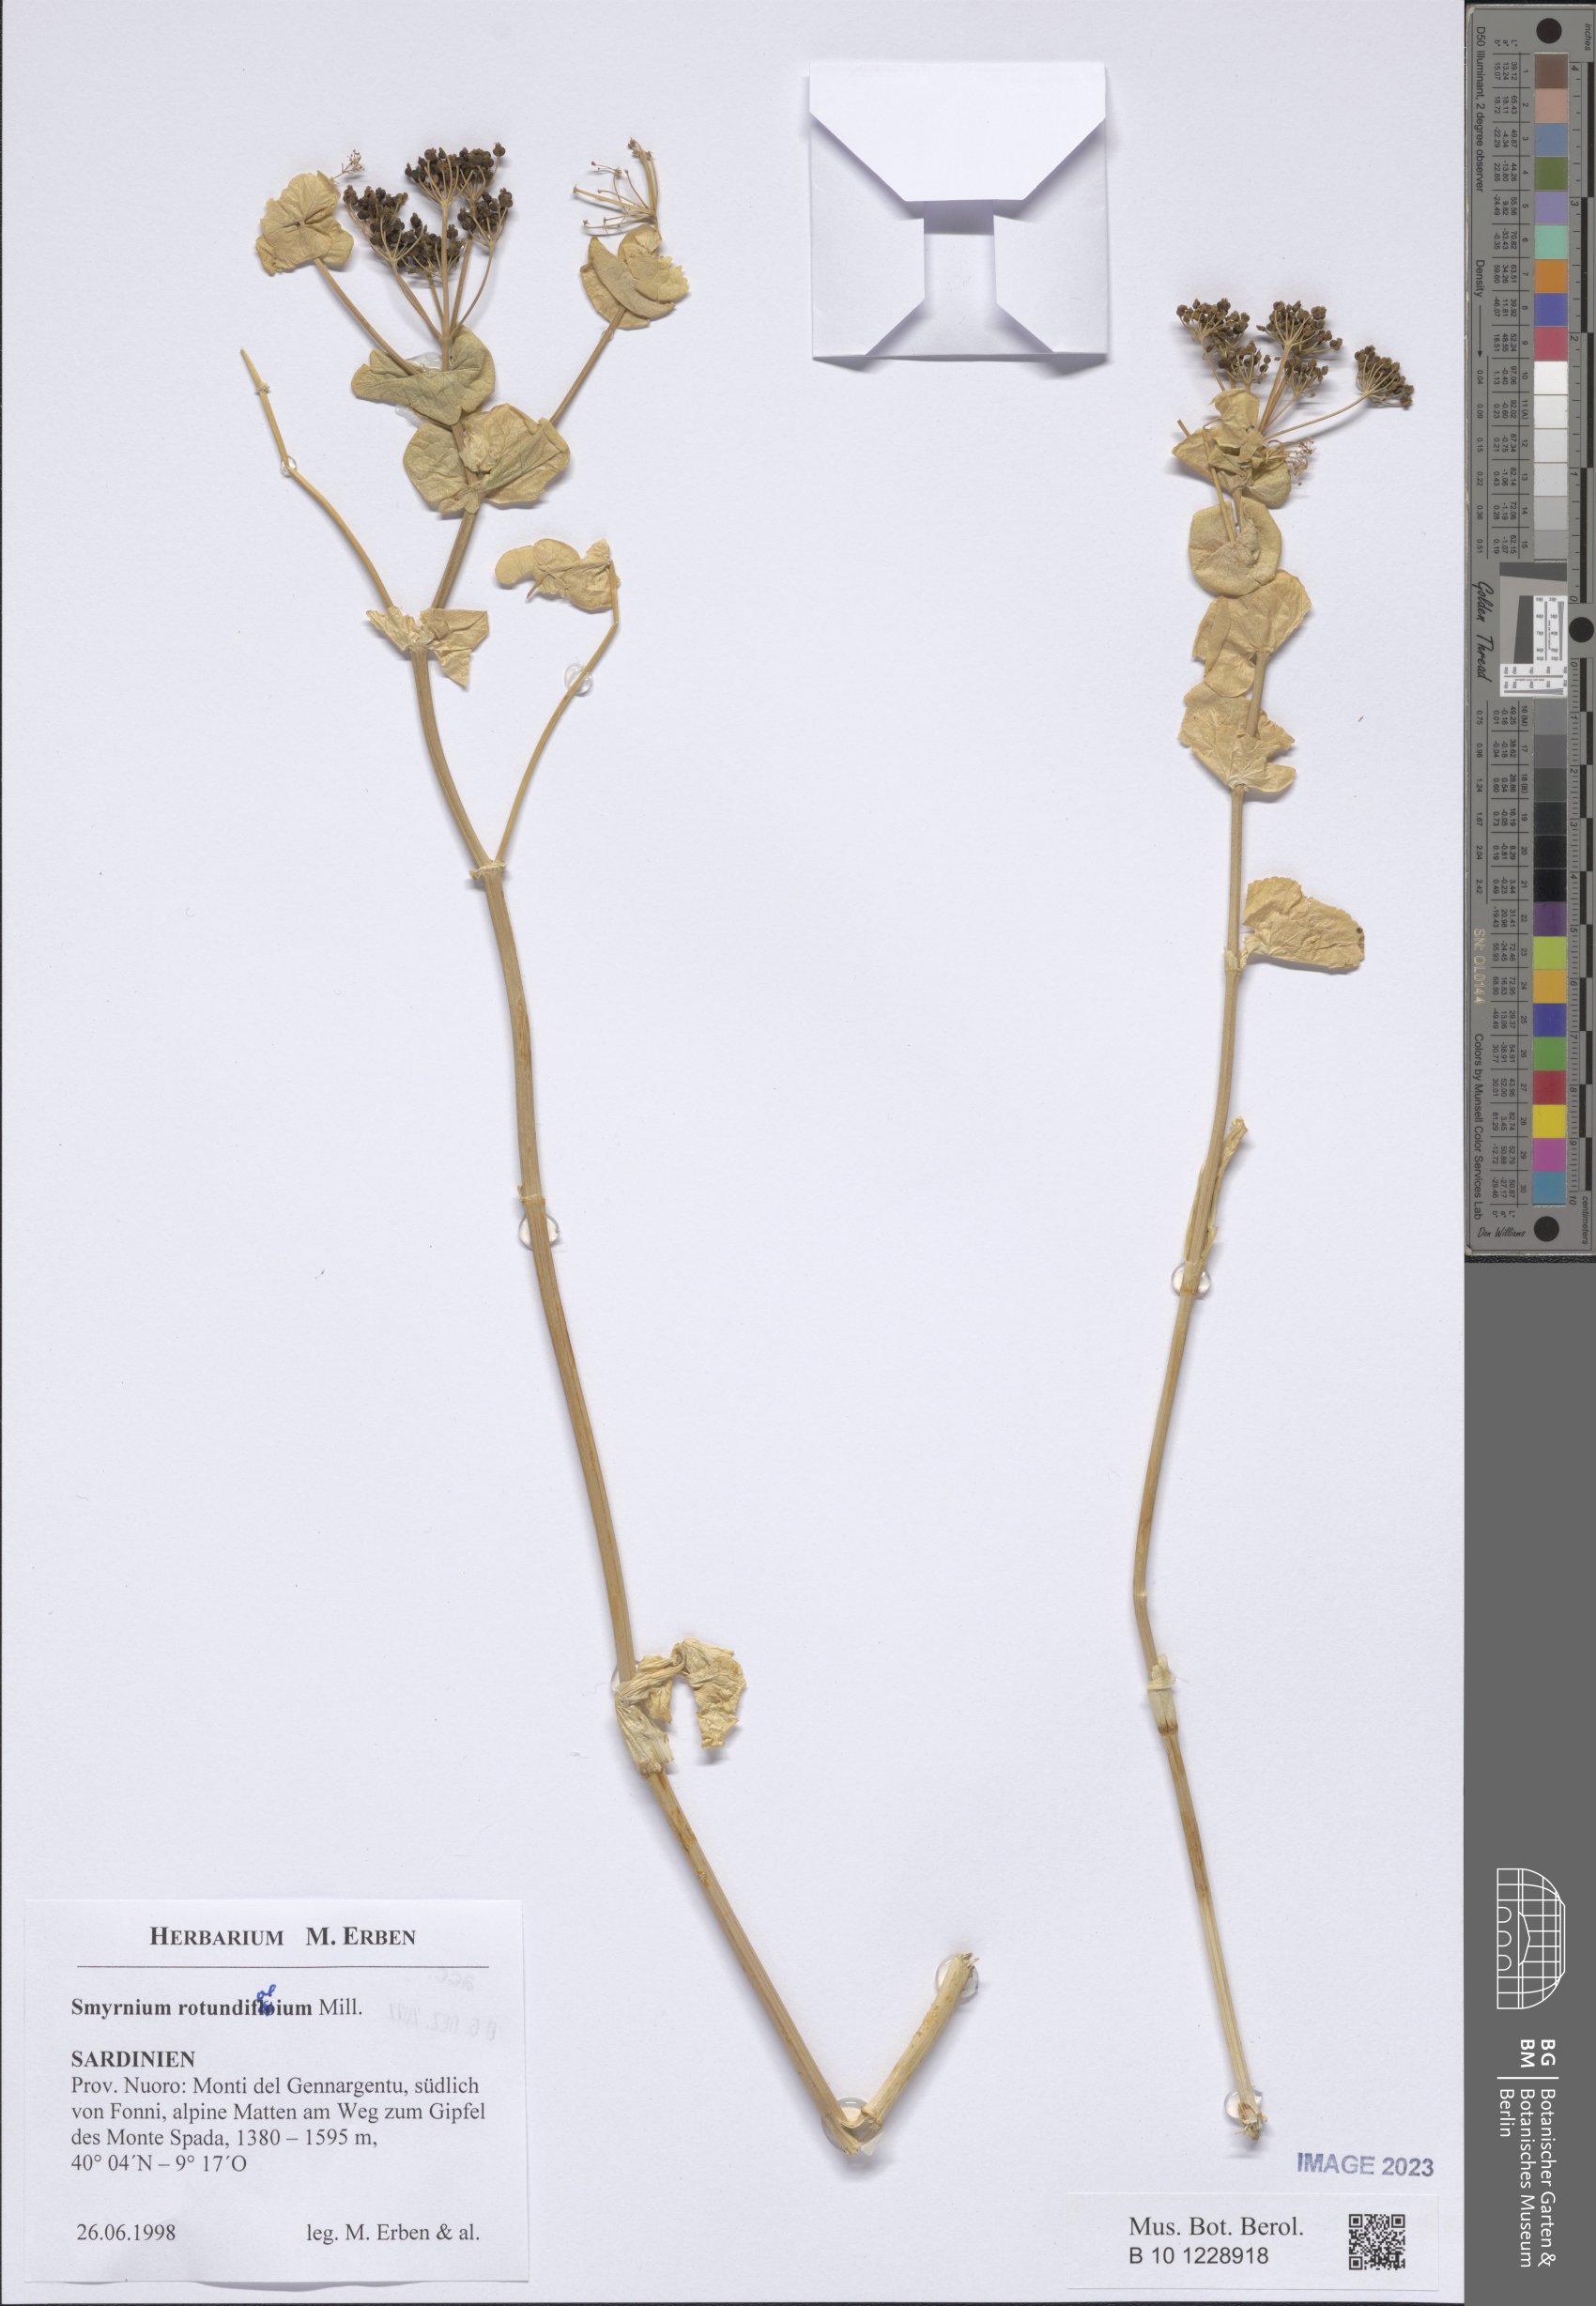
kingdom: Plantae
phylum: Tracheophyta
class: Magnoliopsida
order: Apiales
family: Apiaceae
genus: Smyrnium
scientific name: Smyrnium perfoliatum
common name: Perfoliate alexanders
